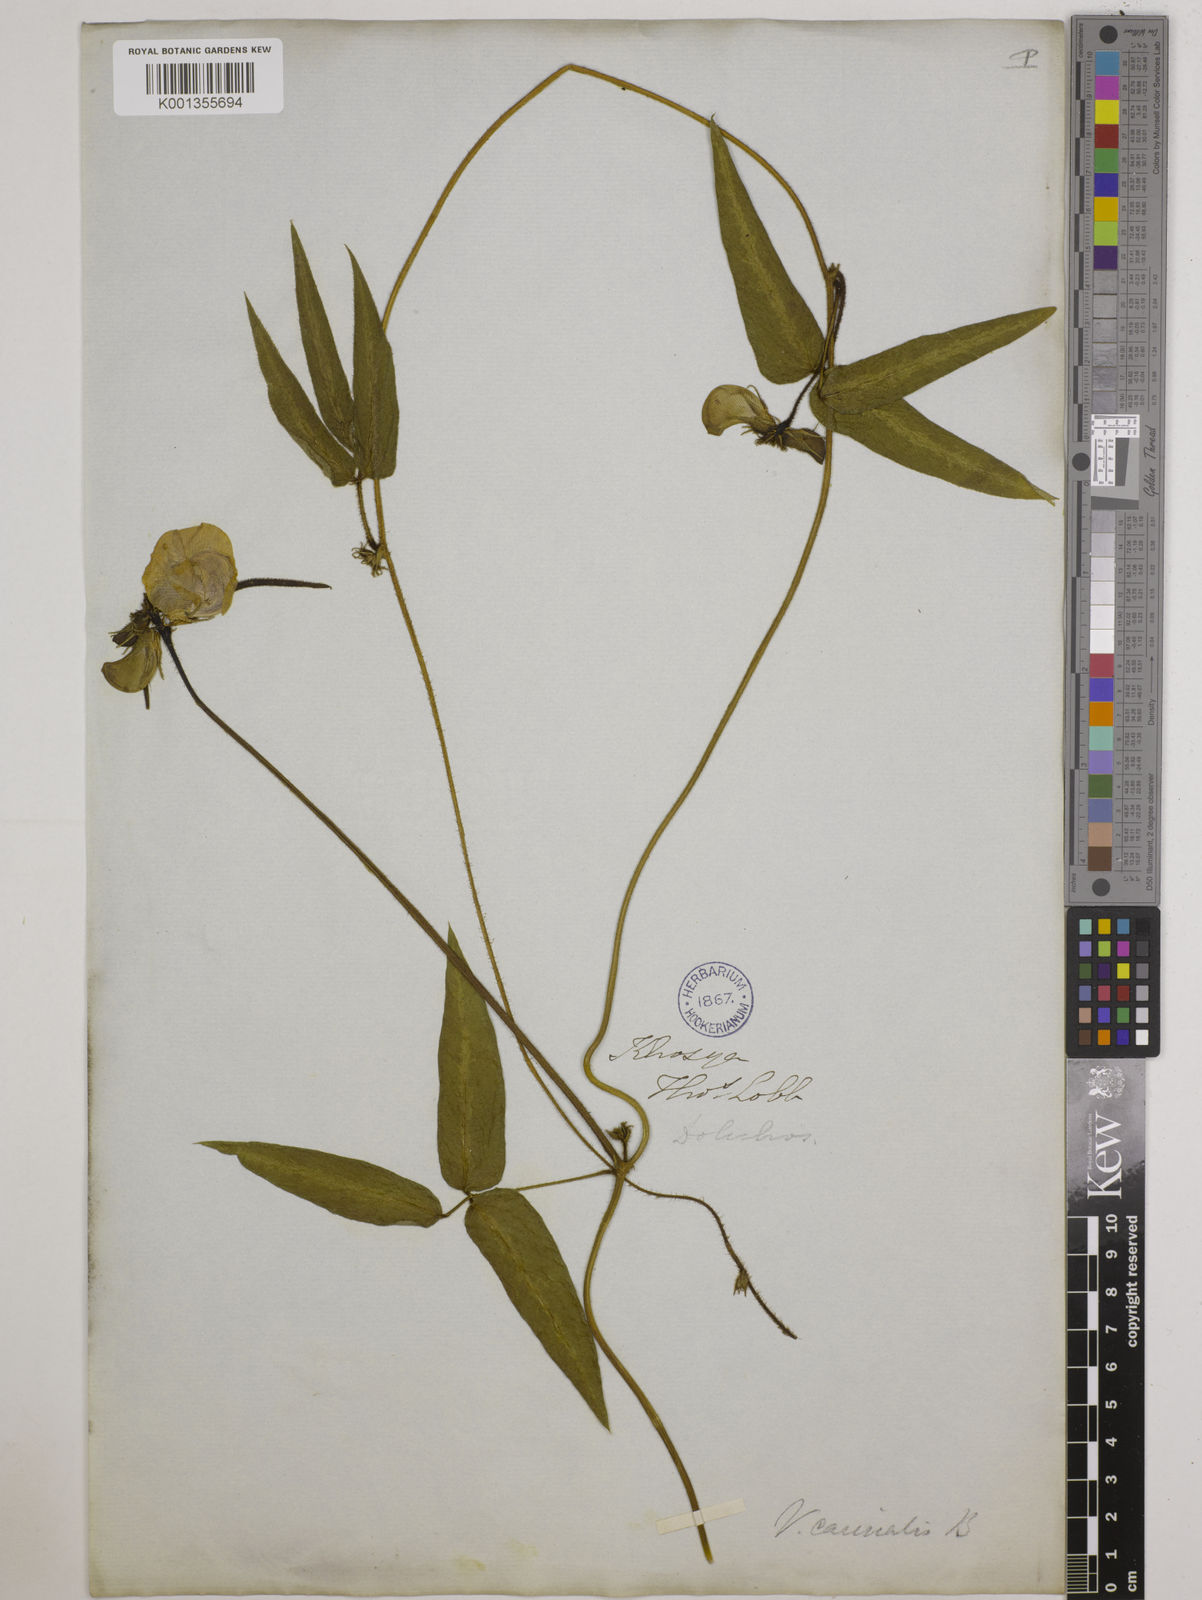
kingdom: Plantae
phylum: Tracheophyta
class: Magnoliopsida
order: Fabales
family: Fabaceae
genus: Vigna
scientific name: Vigna vexillata
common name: Zombi pea
